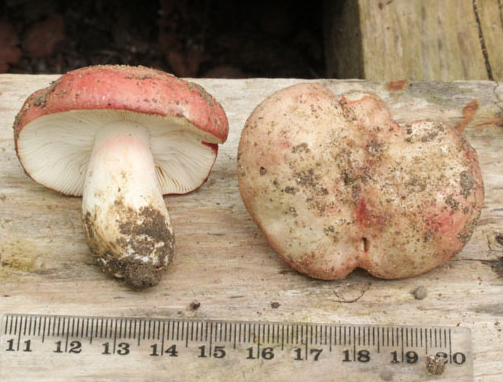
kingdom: Fungi
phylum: Basidiomycota
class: Agaricomycetes
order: Russulales
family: Russulaceae
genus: Russula
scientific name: Russula depallens
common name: falmende skørhat
